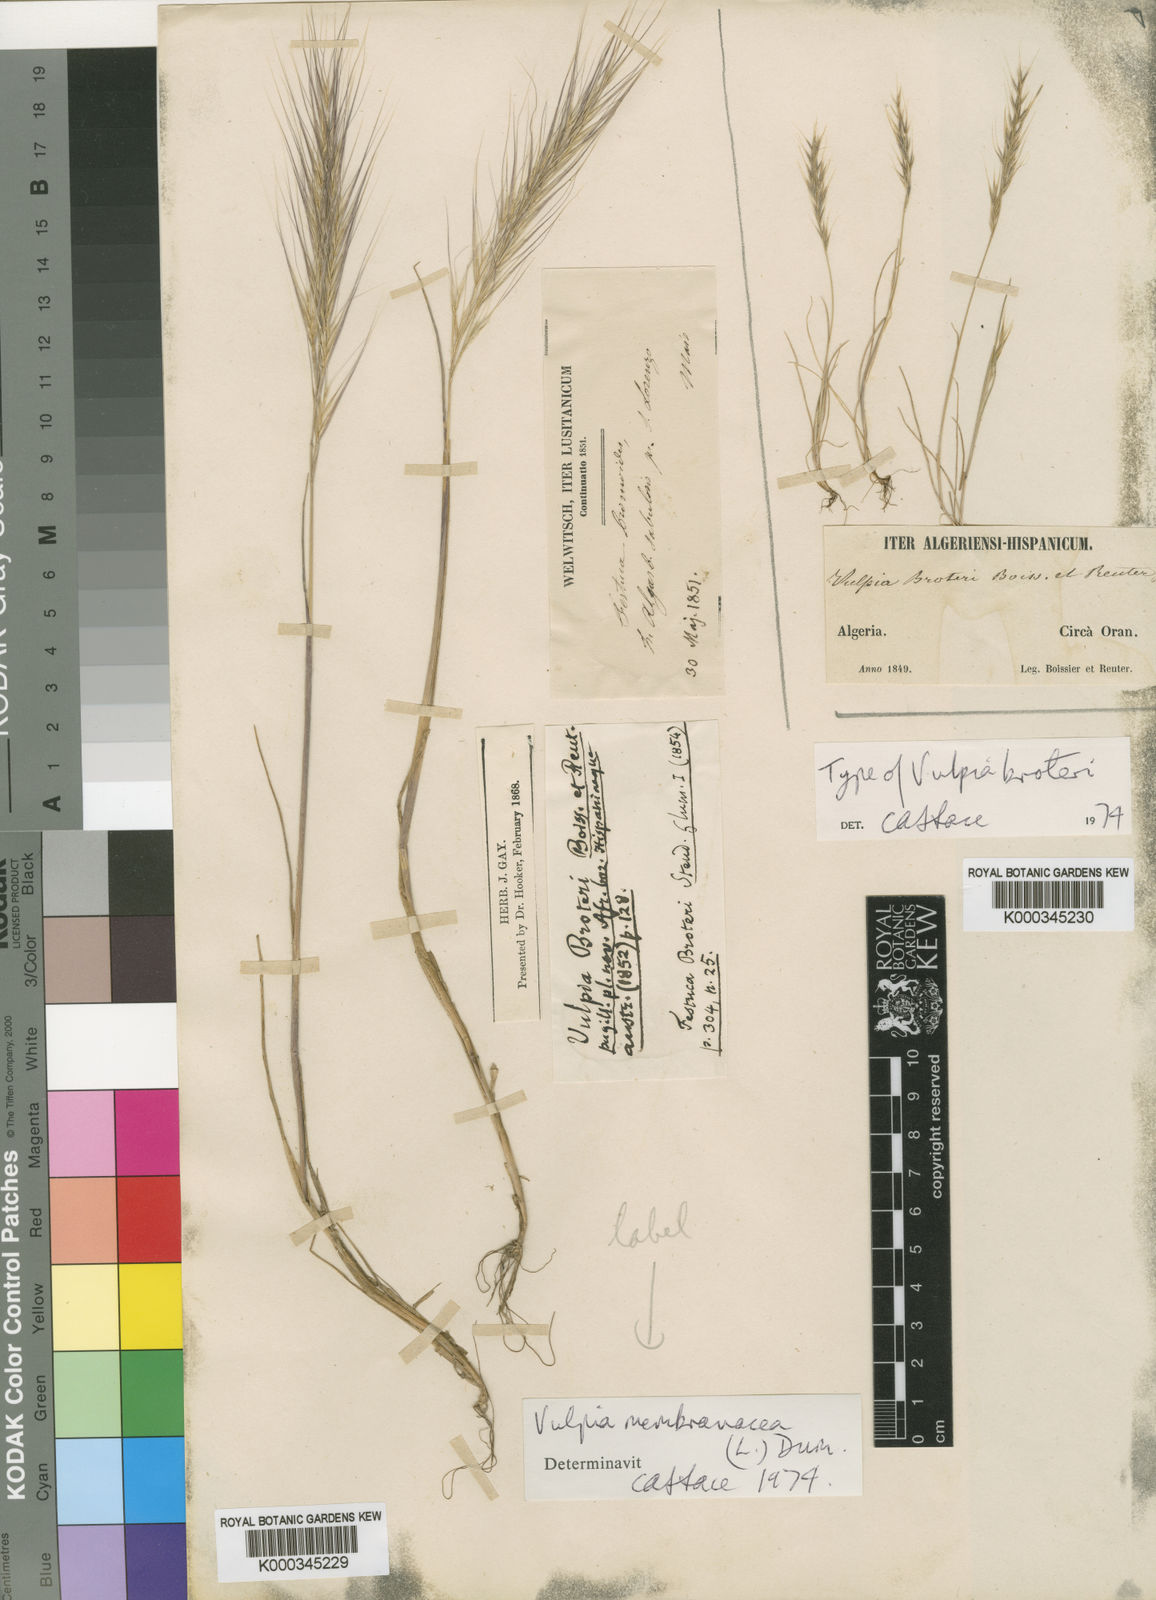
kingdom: Plantae
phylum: Tracheophyta
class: Liliopsida
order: Poales
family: Poaceae
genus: Festuca
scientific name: Festuca muralis
